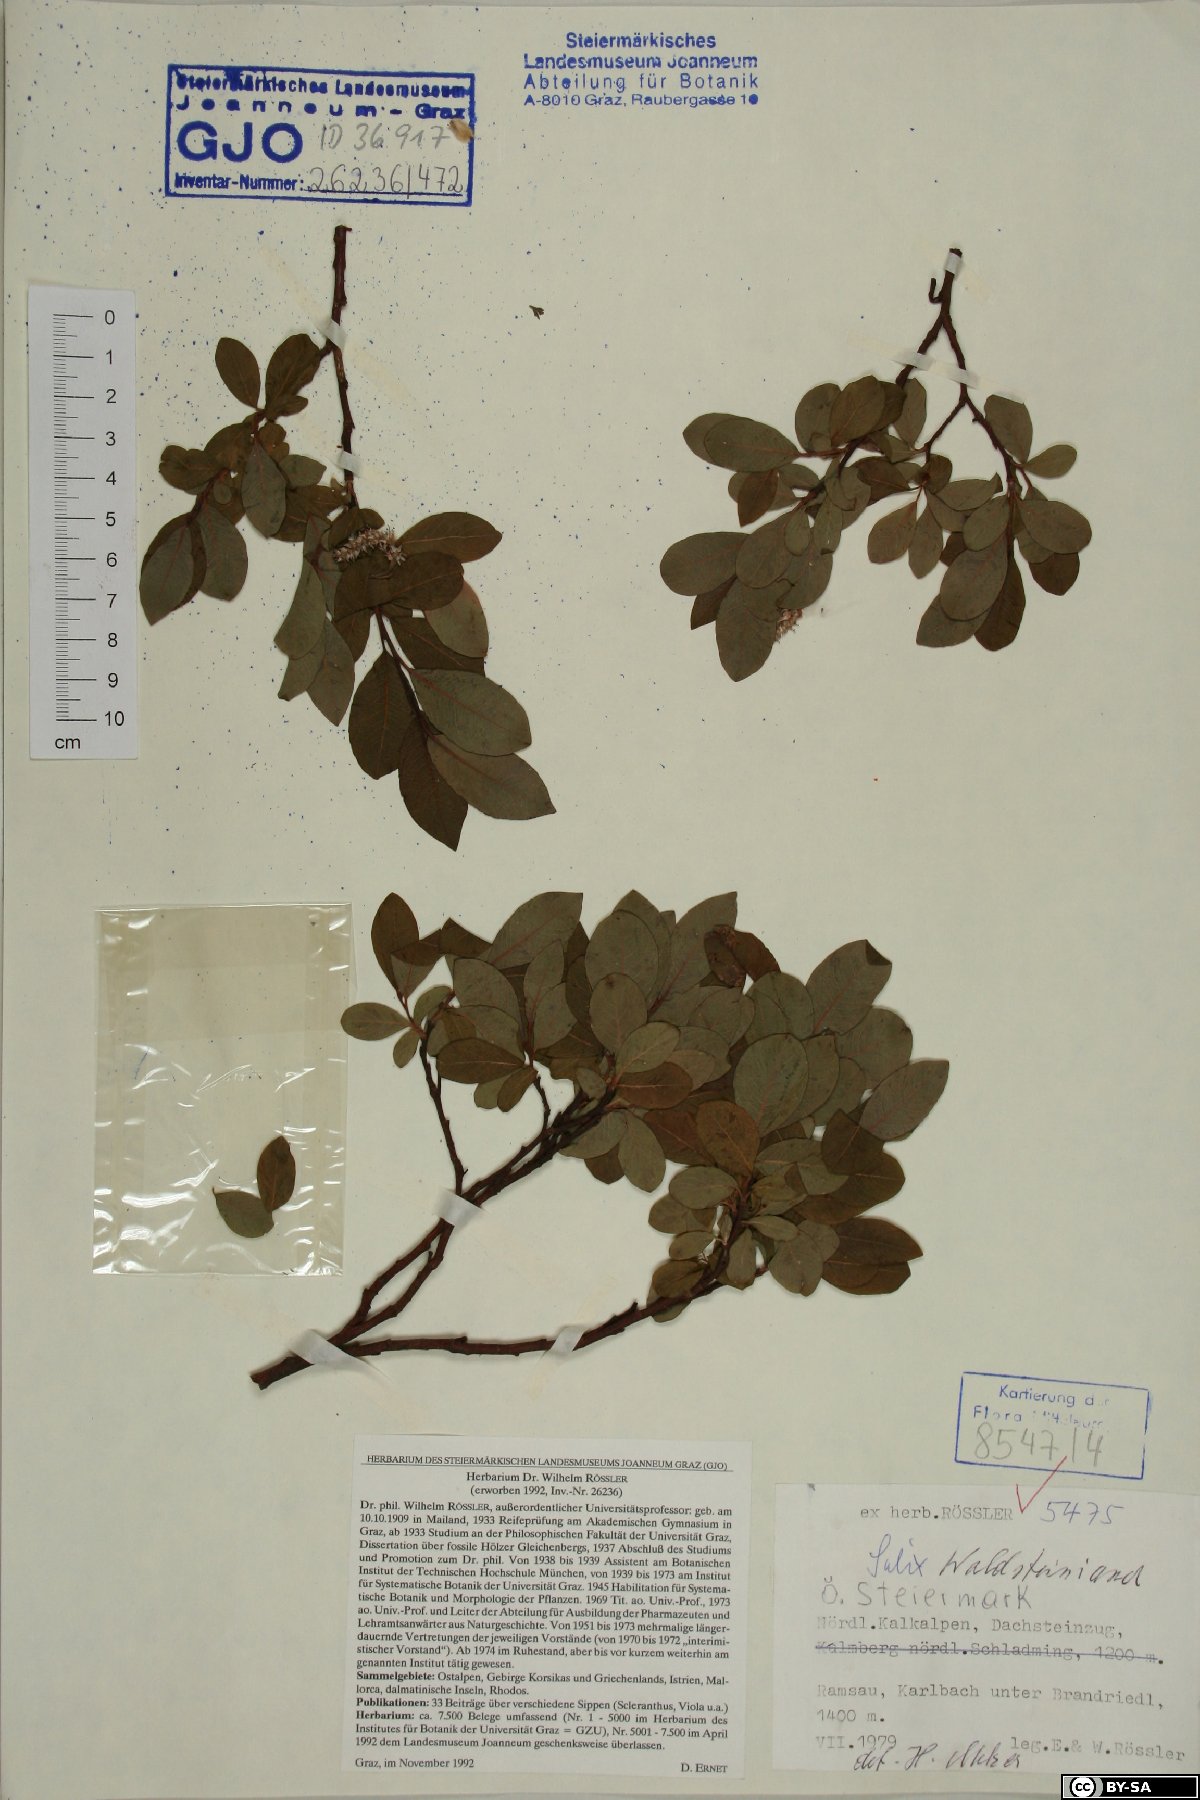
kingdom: Plantae
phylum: Tracheophyta
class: Magnoliopsida
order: Malpighiales
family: Salicaceae
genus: Salix
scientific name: Salix waldsteiniana
